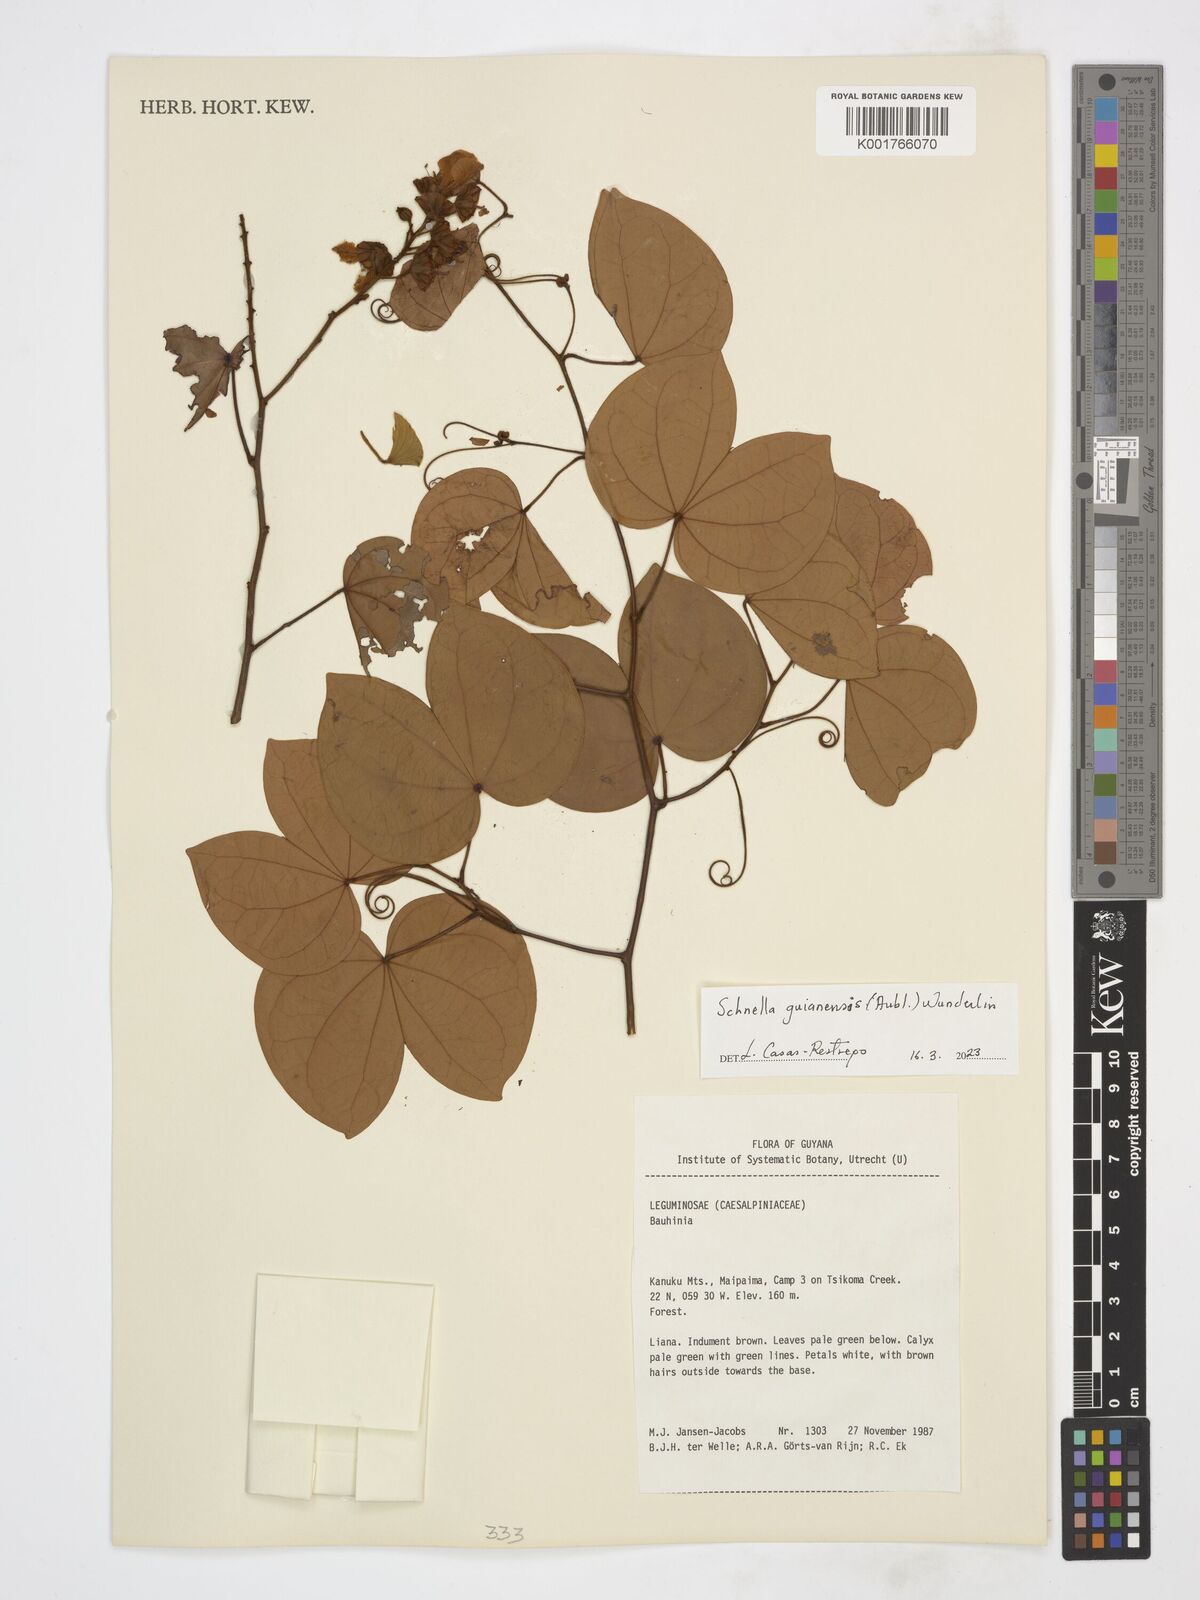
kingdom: Plantae
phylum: Tracheophyta
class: Magnoliopsida
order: Fabales
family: Fabaceae
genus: Schnella
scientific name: Schnella guianensis
